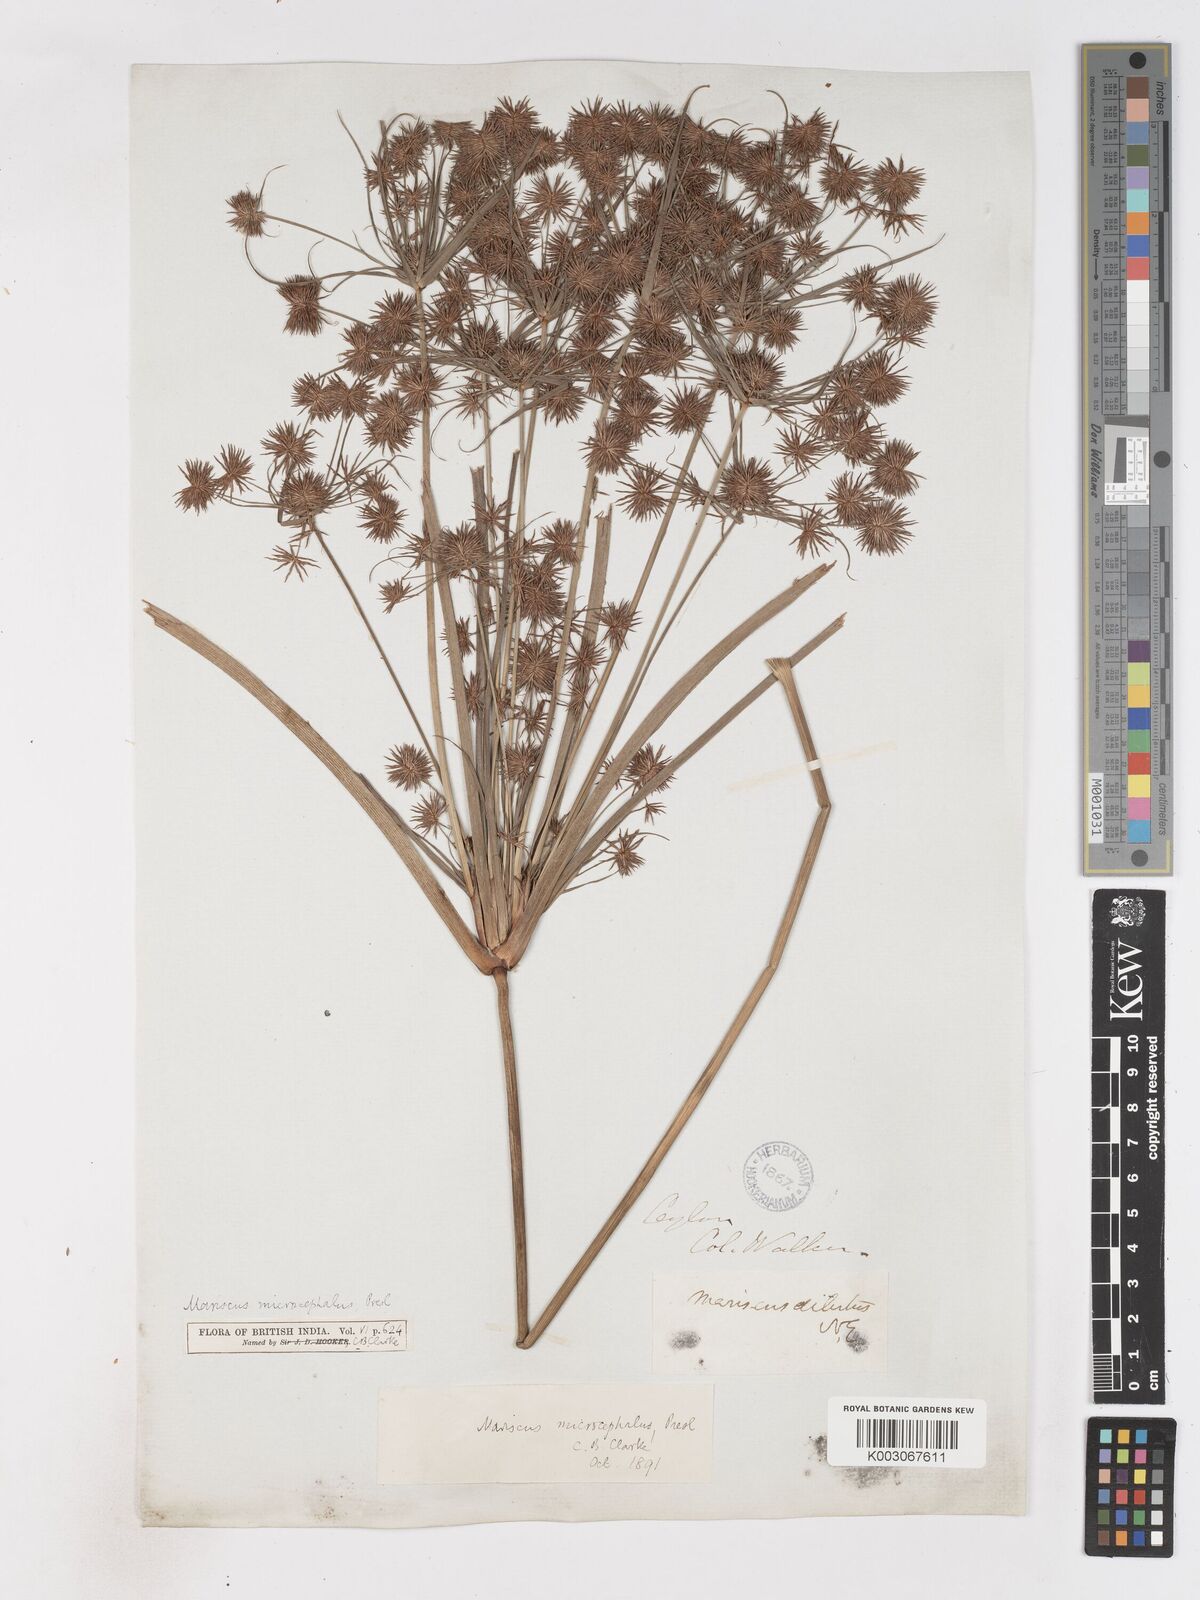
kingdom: Plantae
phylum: Tracheophyta
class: Liliopsida
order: Poales
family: Cyperaceae
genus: Cyperus
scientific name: Cyperus compactus
